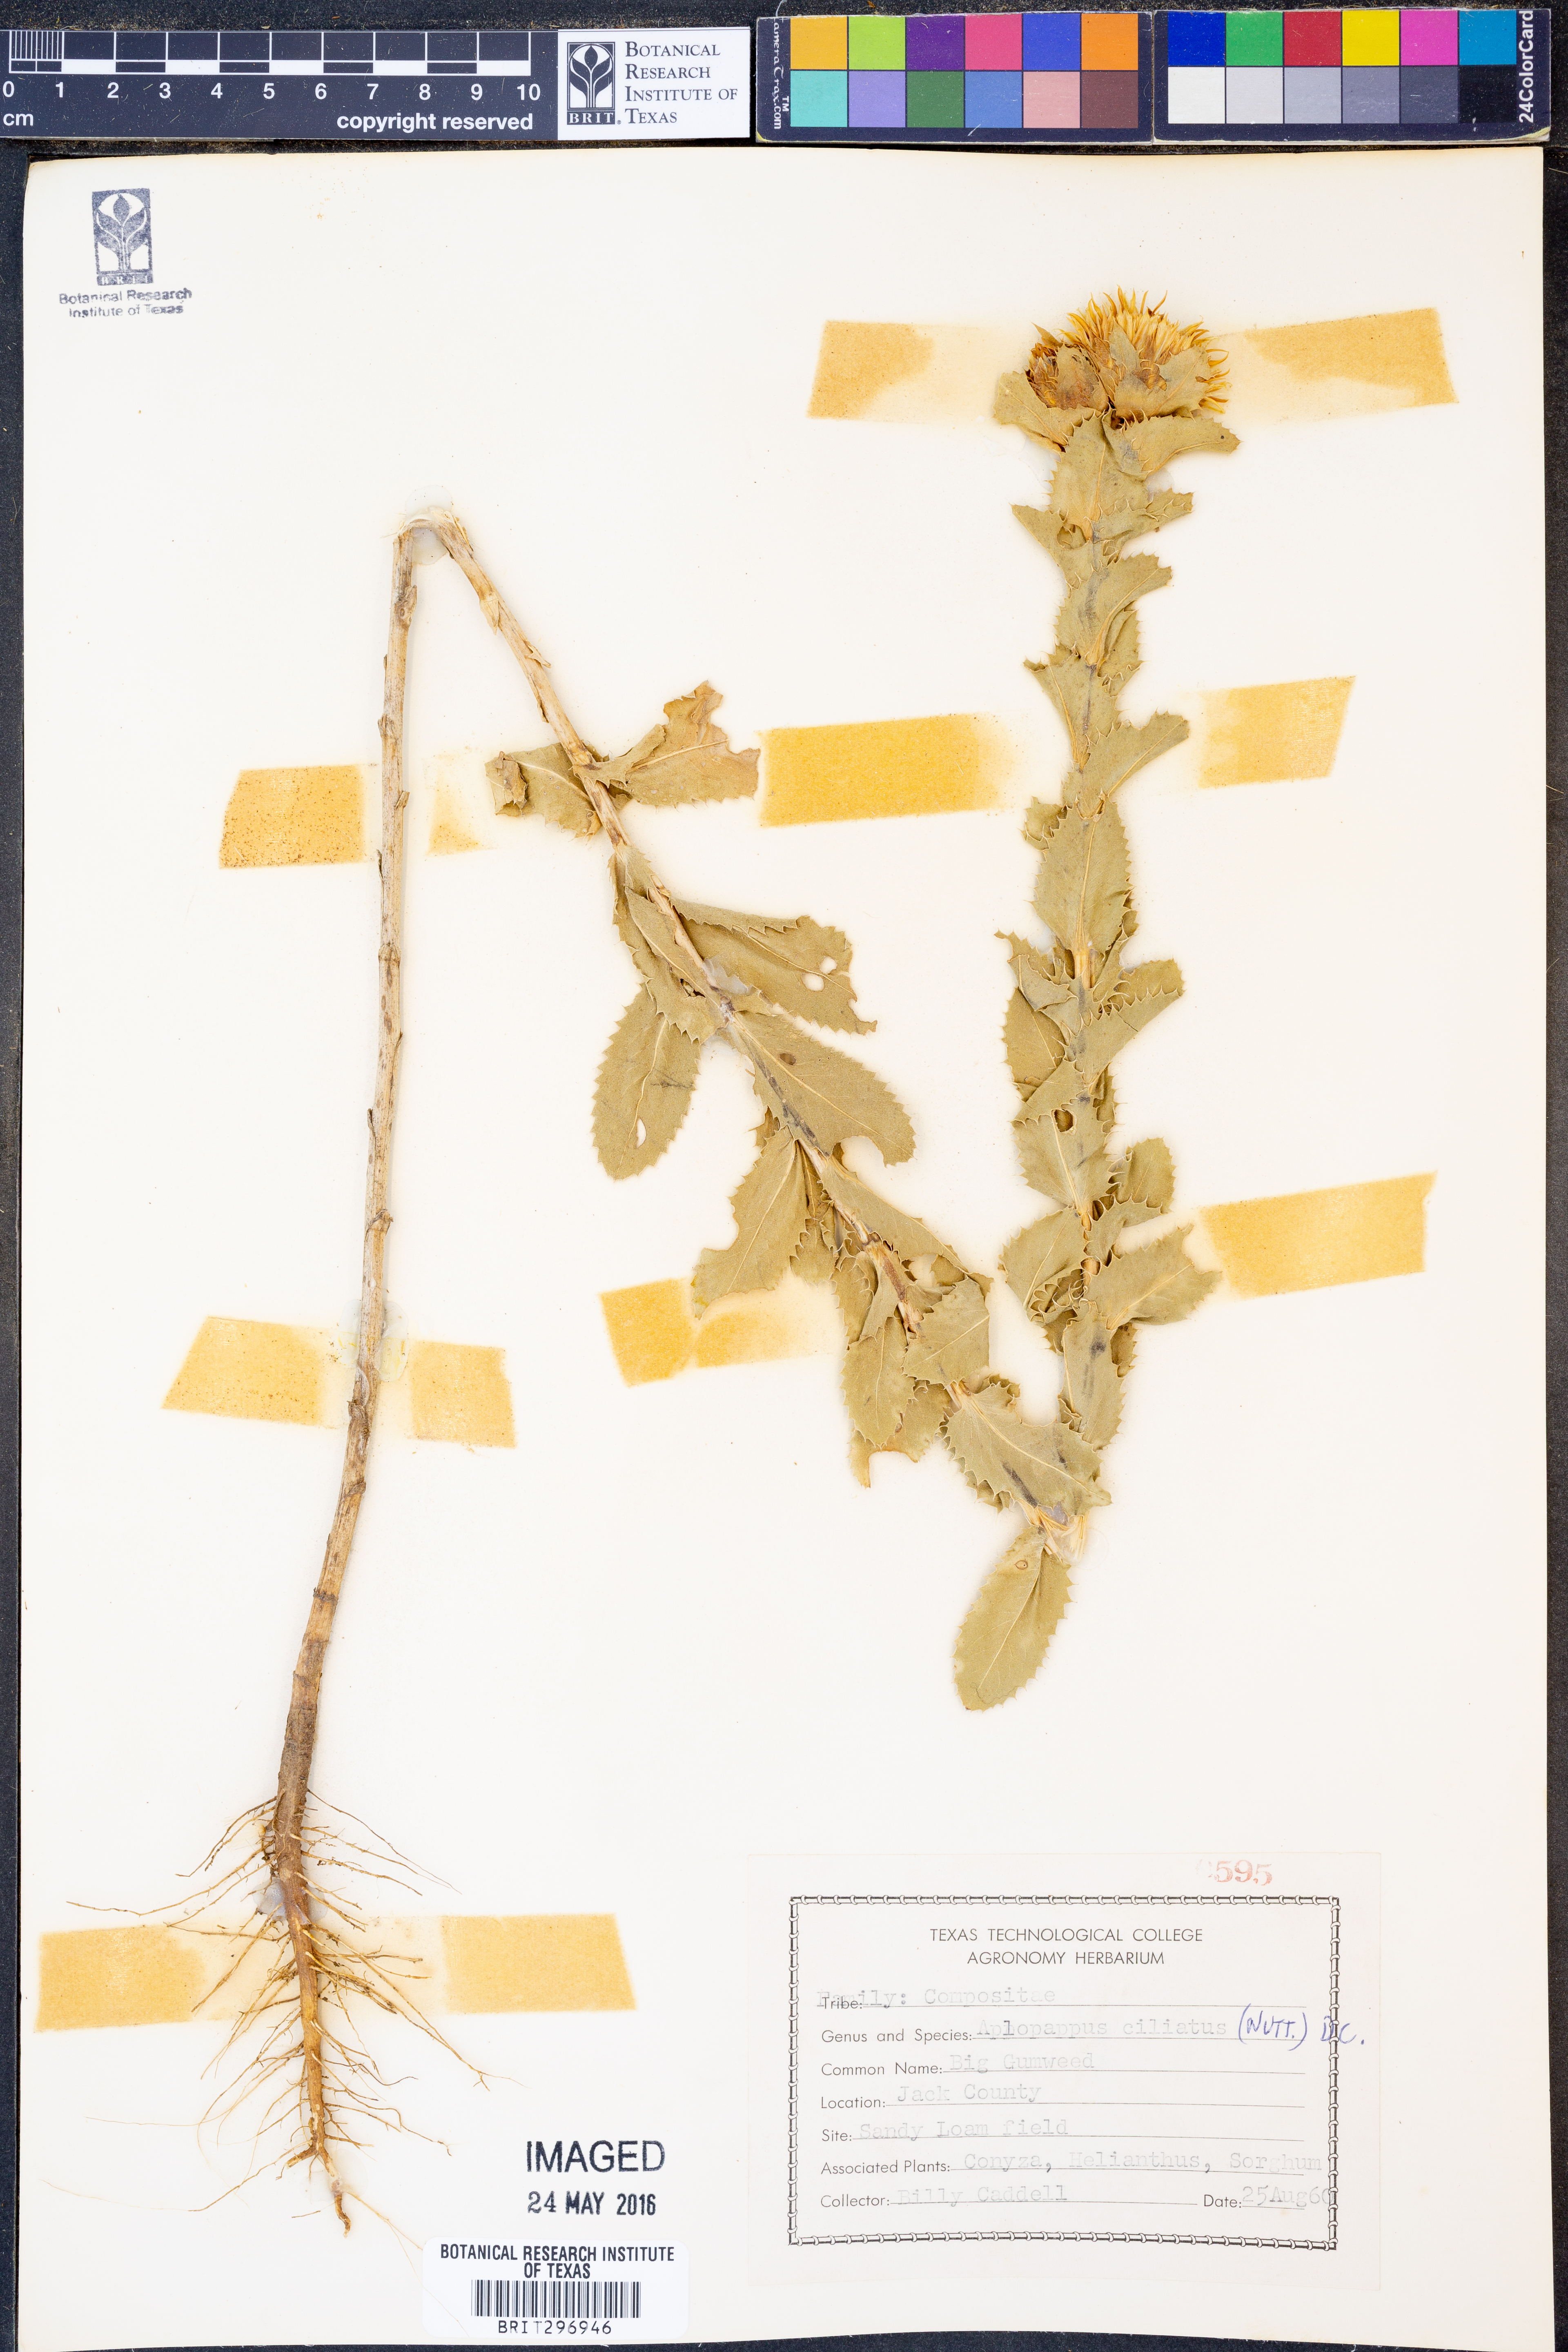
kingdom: Plantae
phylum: Tracheophyta
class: Magnoliopsida
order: Asterales
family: Asteraceae
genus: Grindelia
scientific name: Grindelia ciliata
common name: Goldenweed
